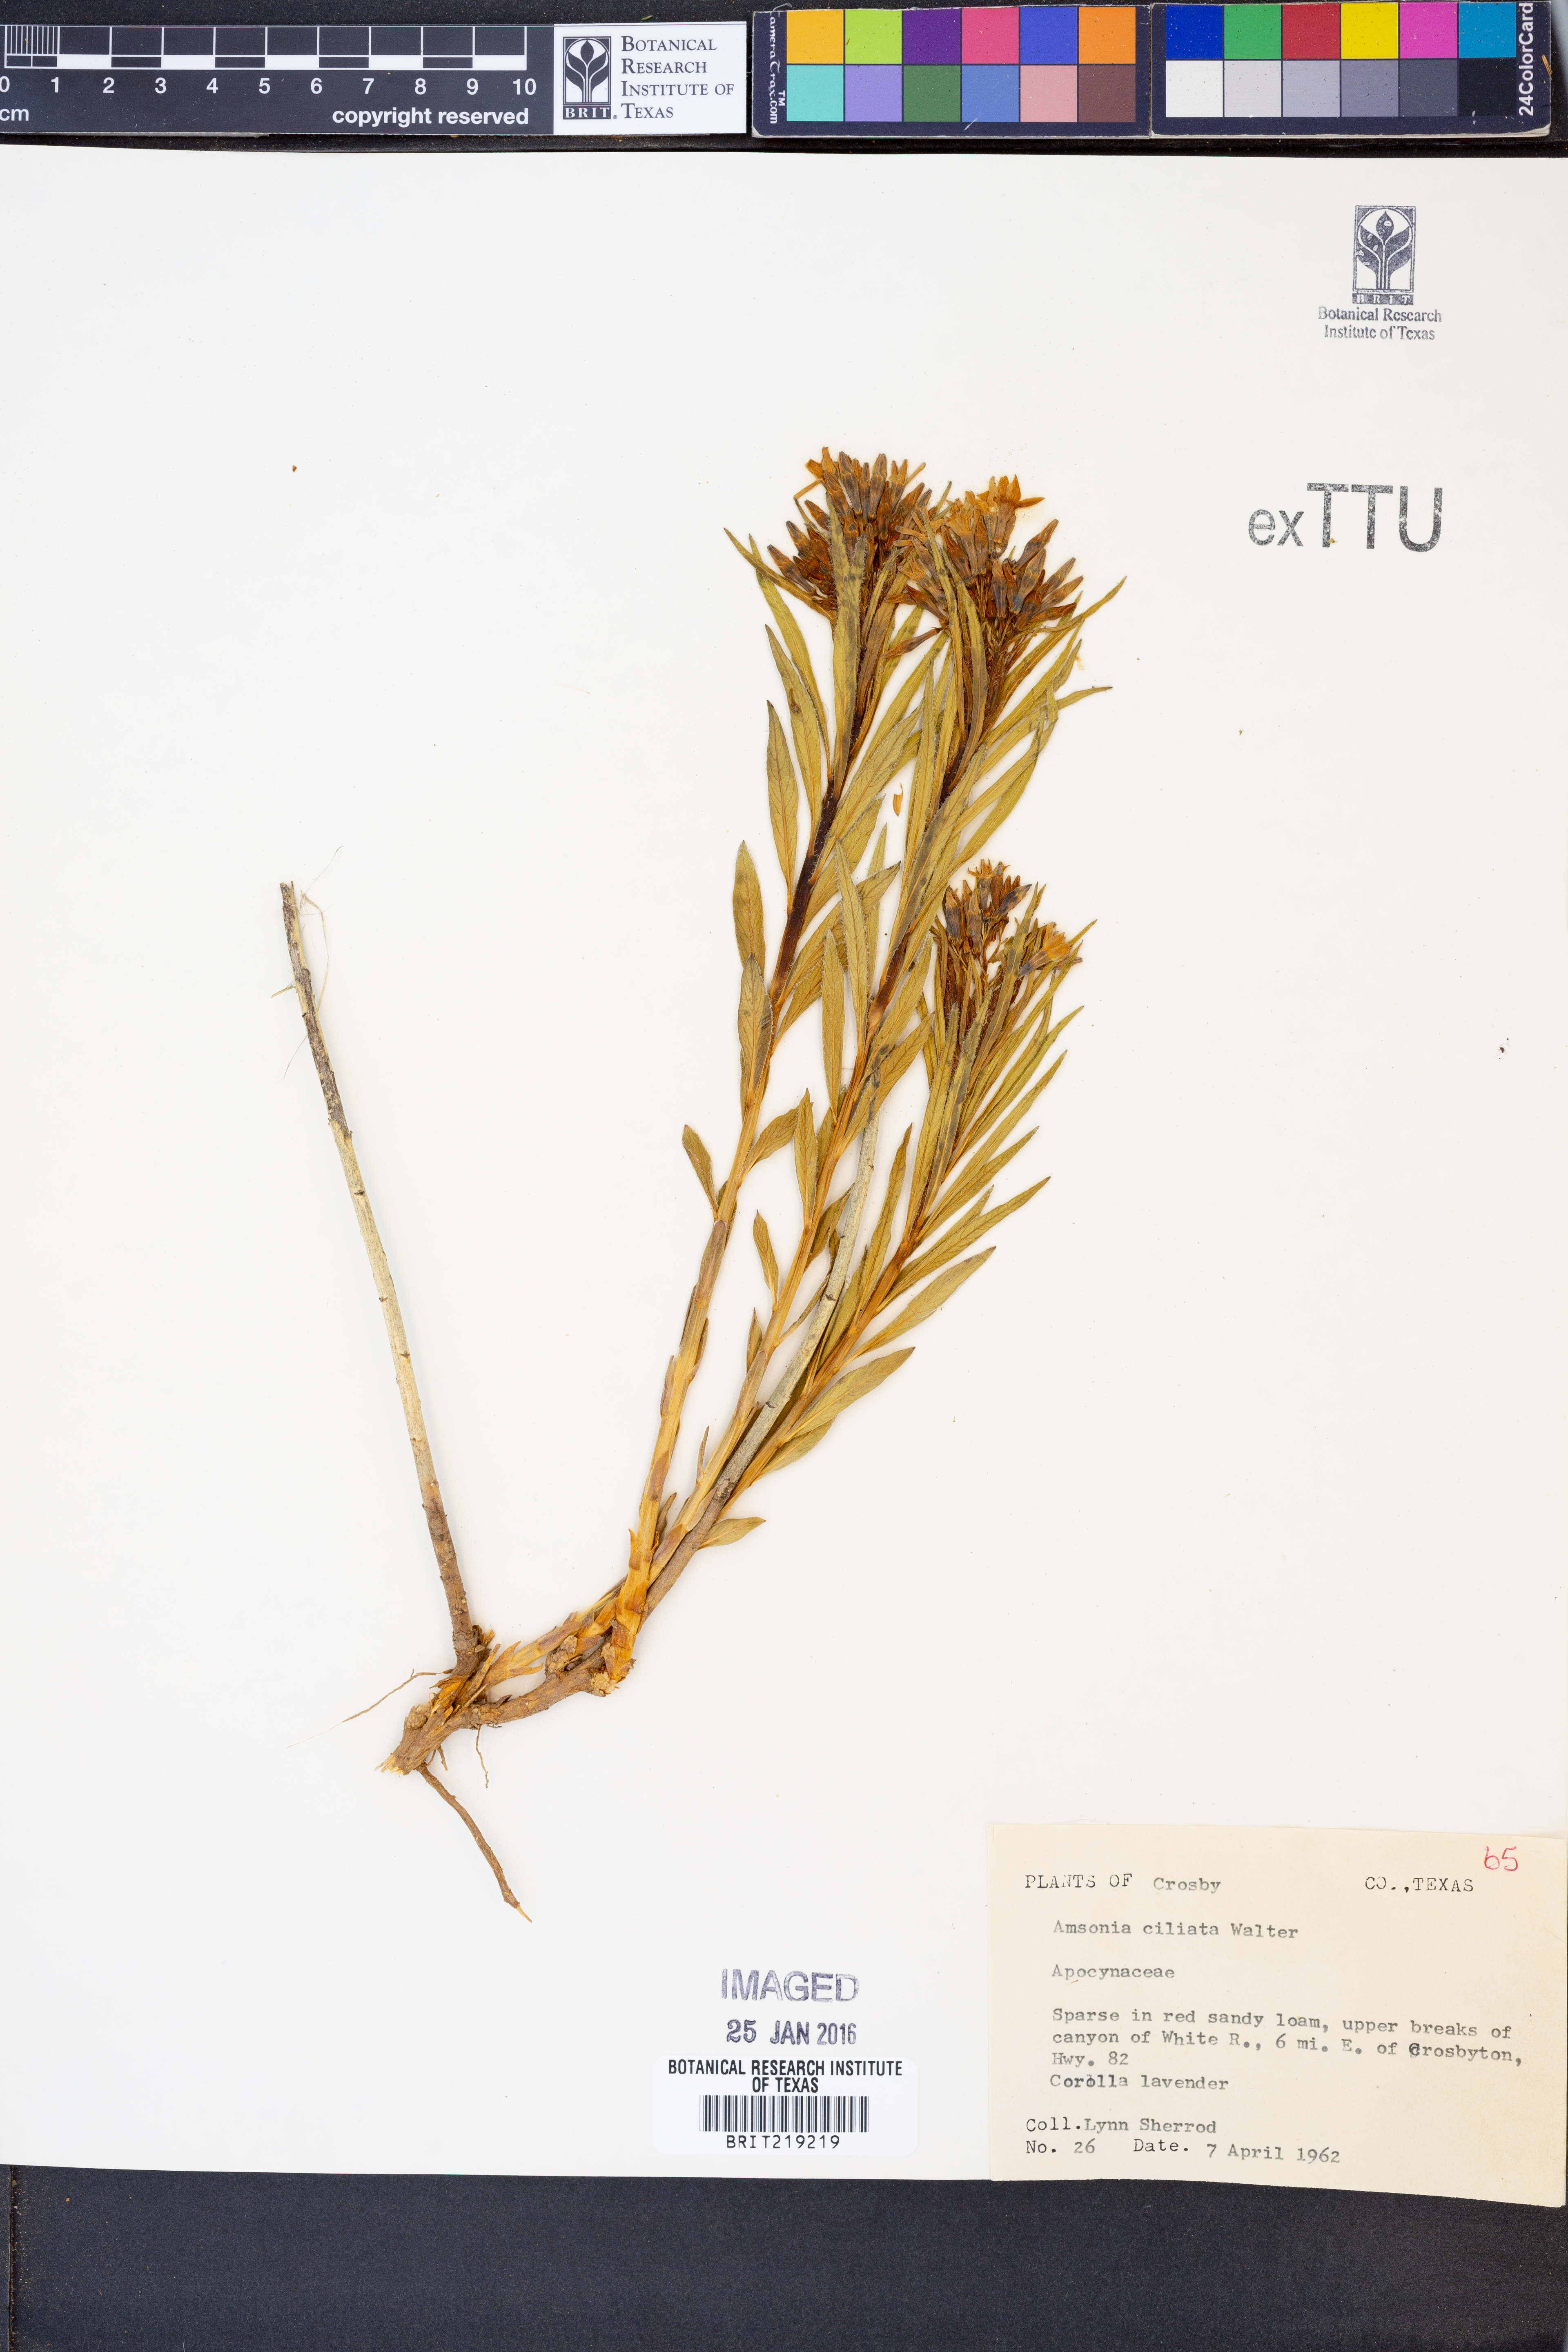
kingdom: Plantae
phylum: Tracheophyta
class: Magnoliopsida
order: Gentianales
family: Apocynaceae
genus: Amsonia
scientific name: Amsonia ciliata
